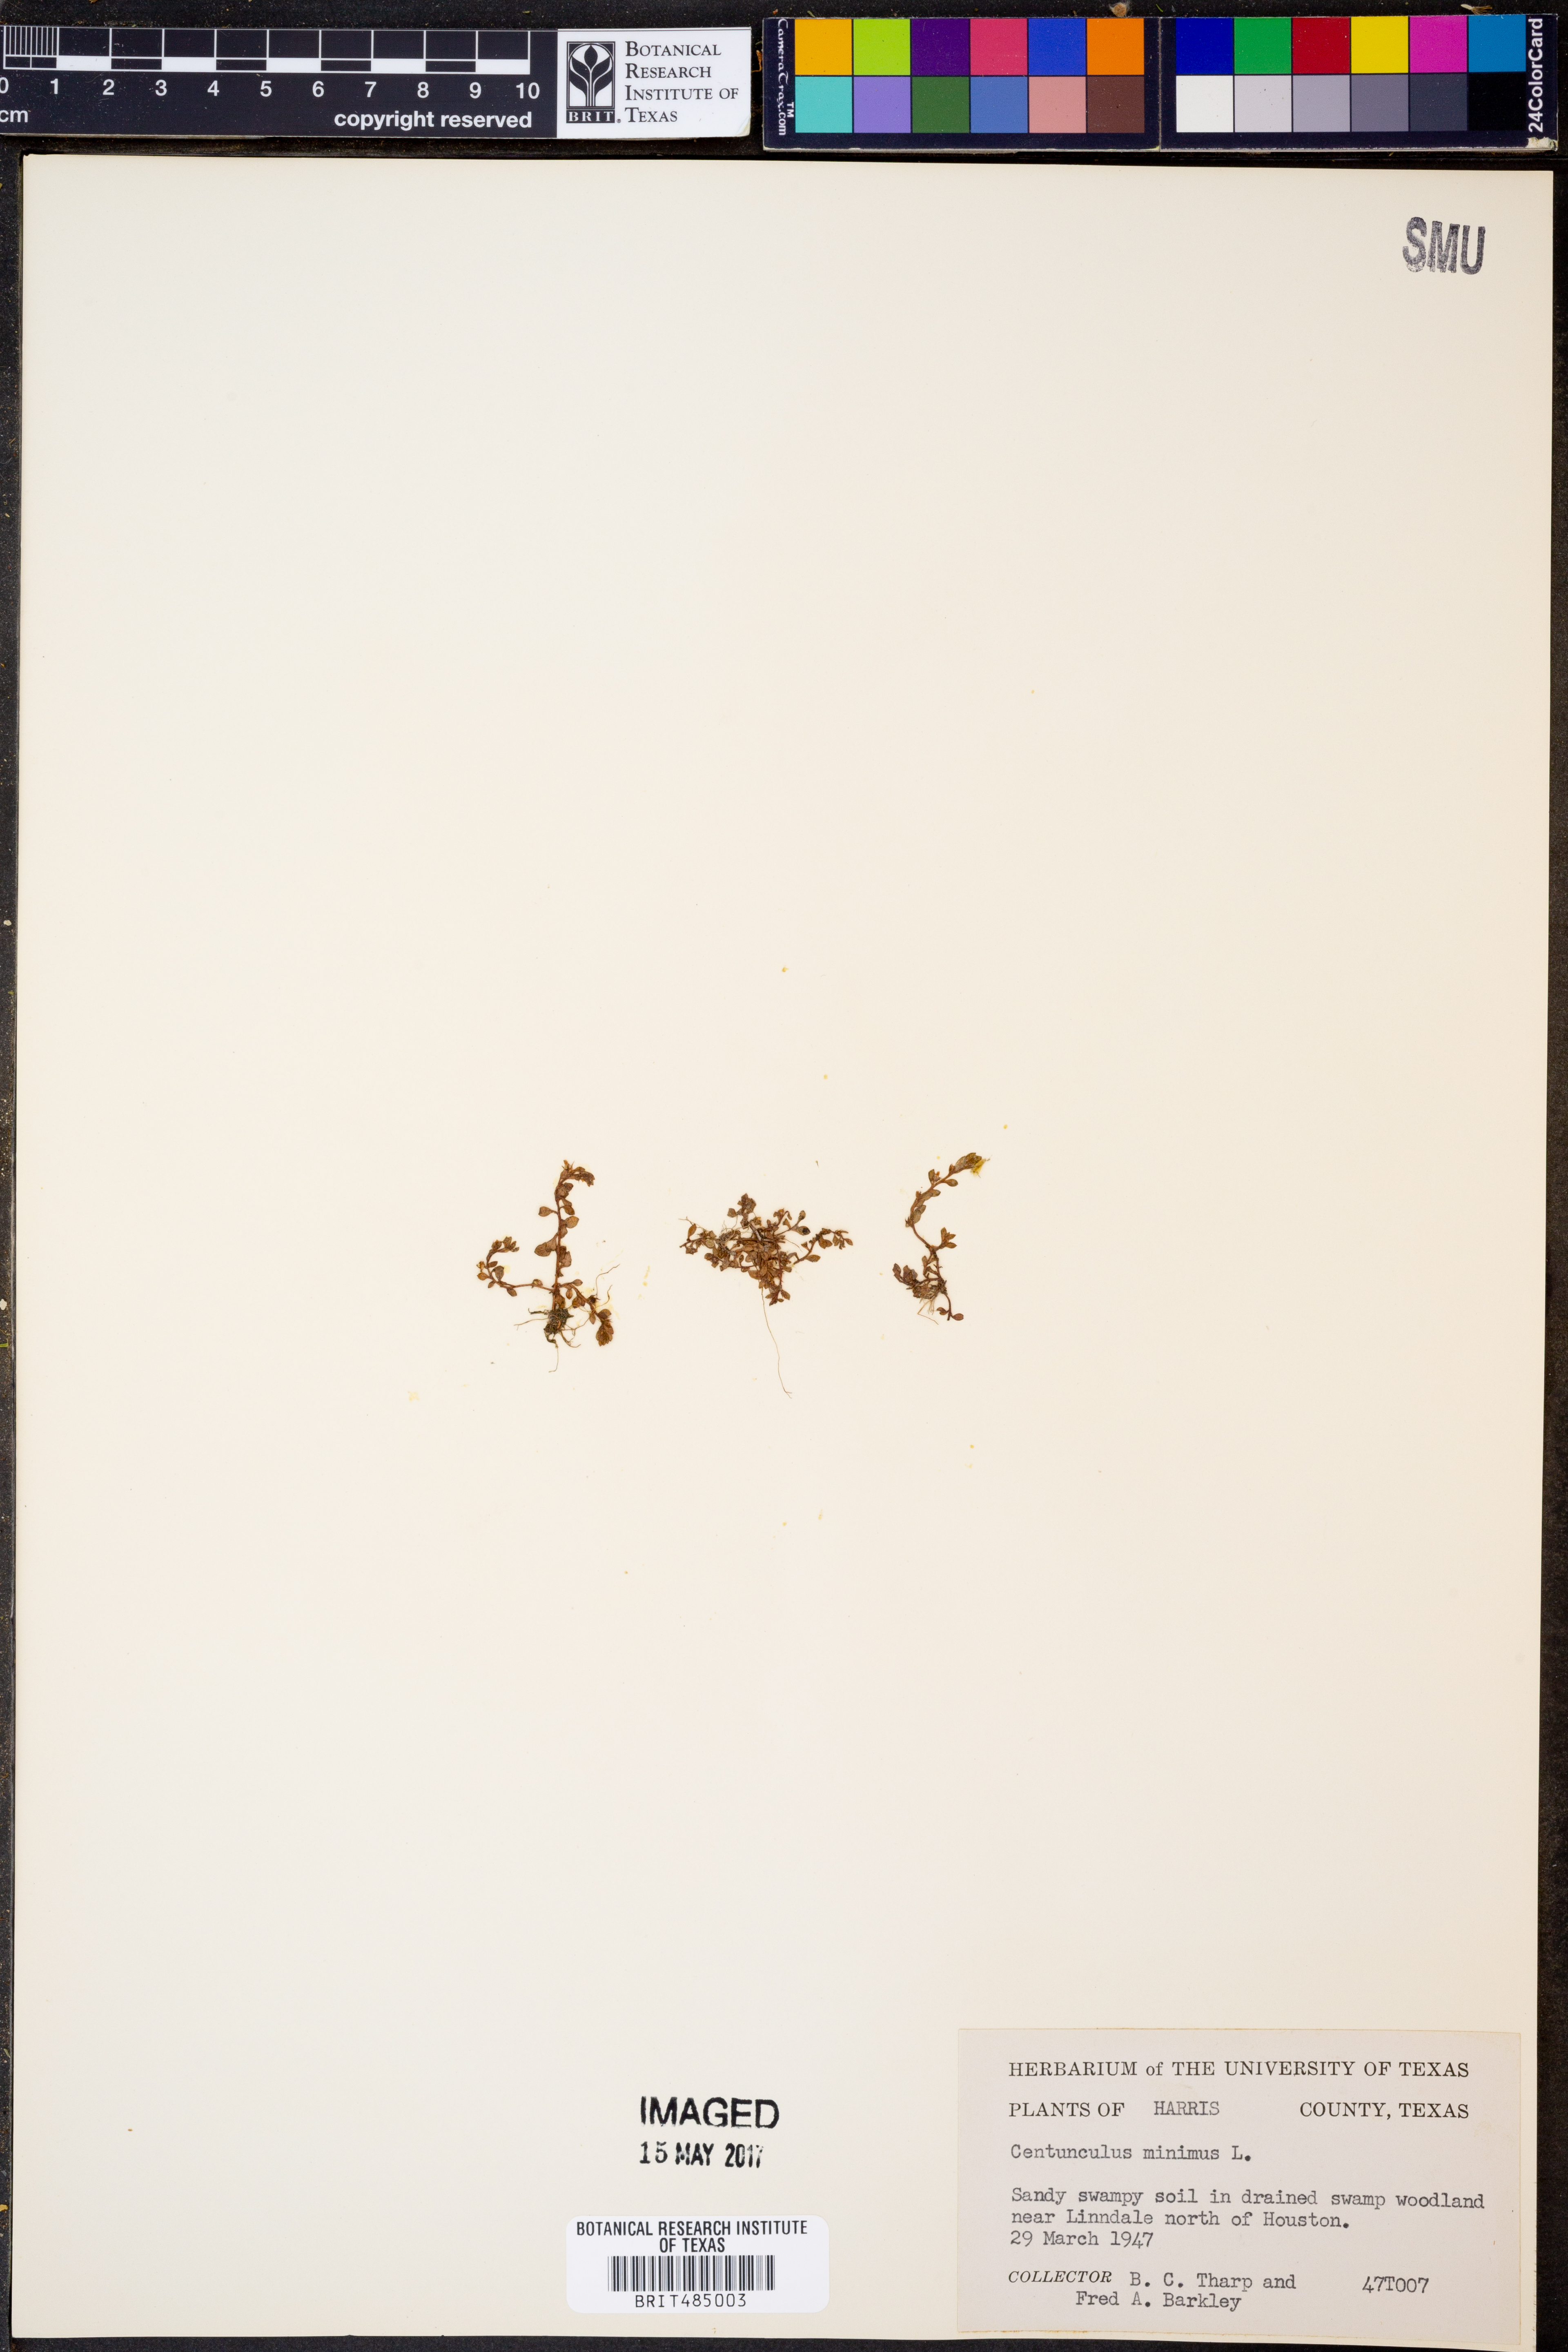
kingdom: Plantae
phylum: Tracheophyta
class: Magnoliopsida
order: Ericales
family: Primulaceae
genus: Lysimachia
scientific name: Lysimachia minima
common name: Chaffweed
